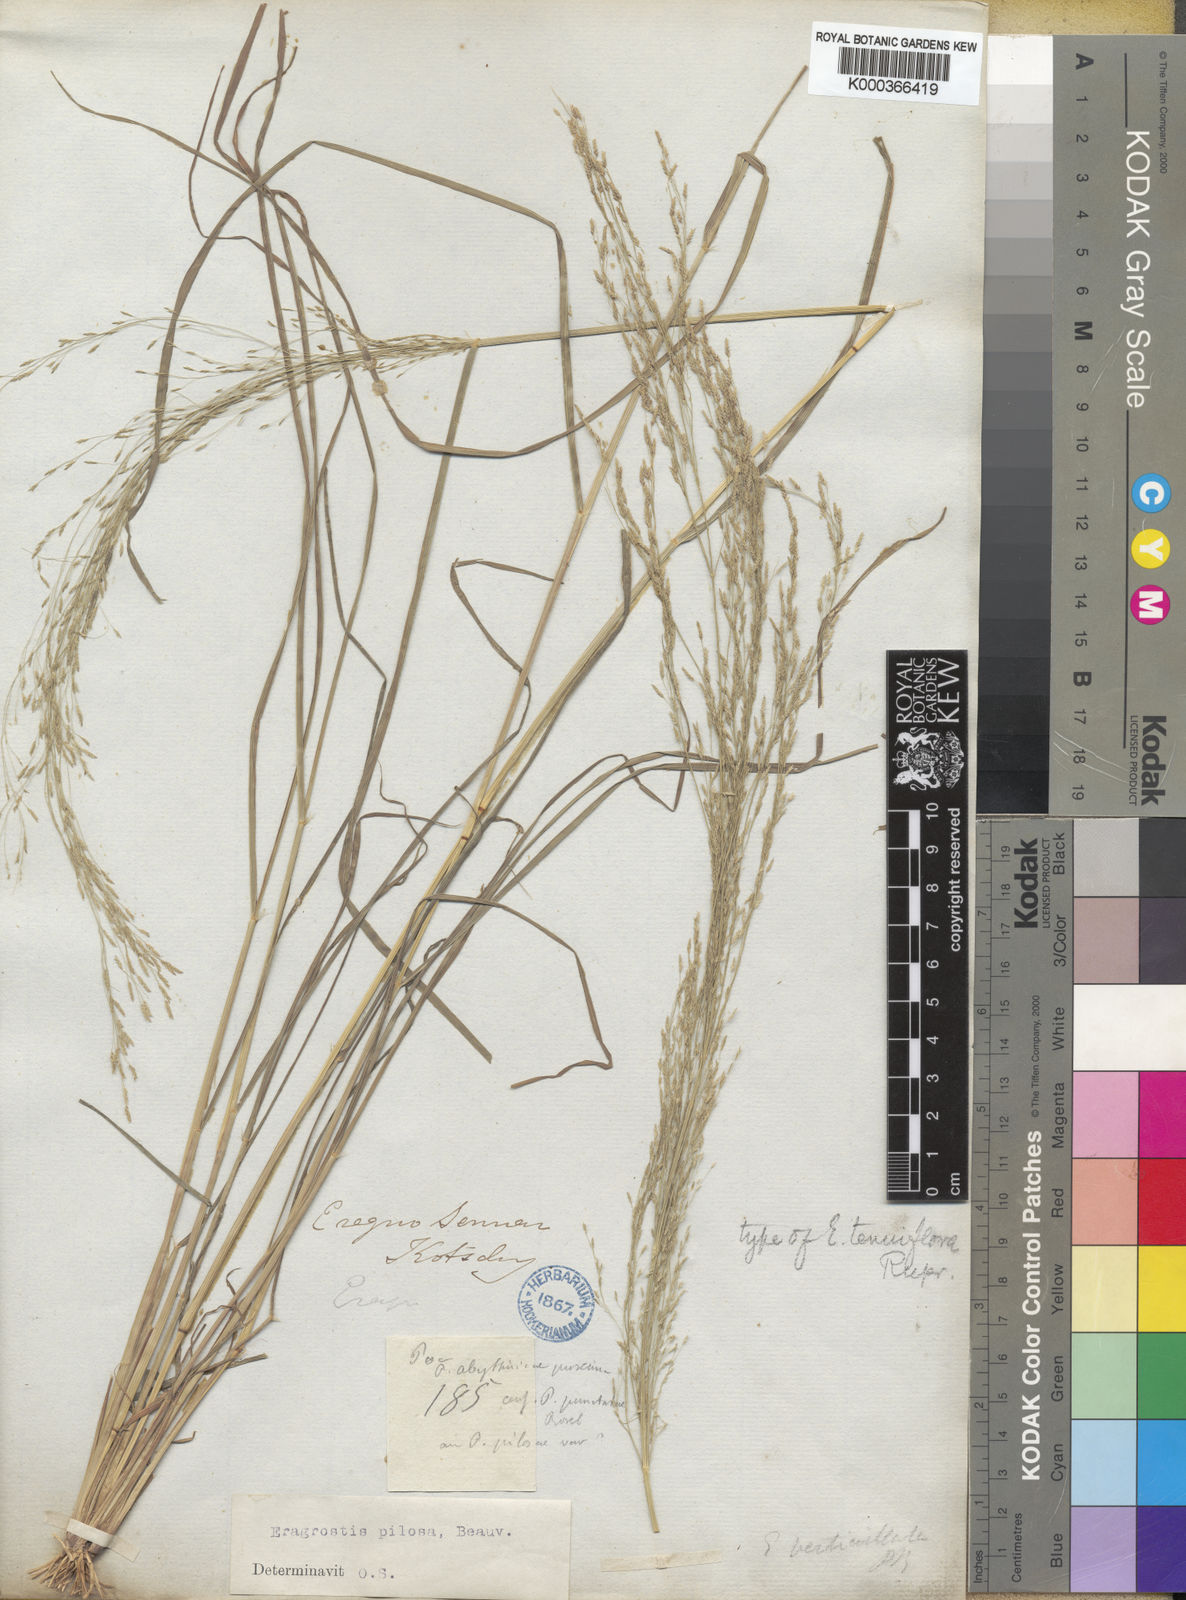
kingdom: Plantae
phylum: Tracheophyta
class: Liliopsida
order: Poales
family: Poaceae
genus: Eragrostis
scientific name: Eragrostis pilosa
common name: Indian lovegrass
